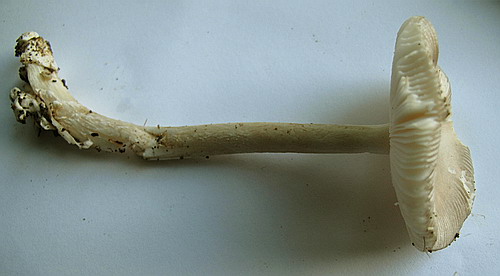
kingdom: Fungi
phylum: Basidiomycota
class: Agaricomycetes
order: Agaricales
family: Amanitaceae
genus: Amanita
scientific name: Amanita vaginata
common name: grå kam-fluesvamp
